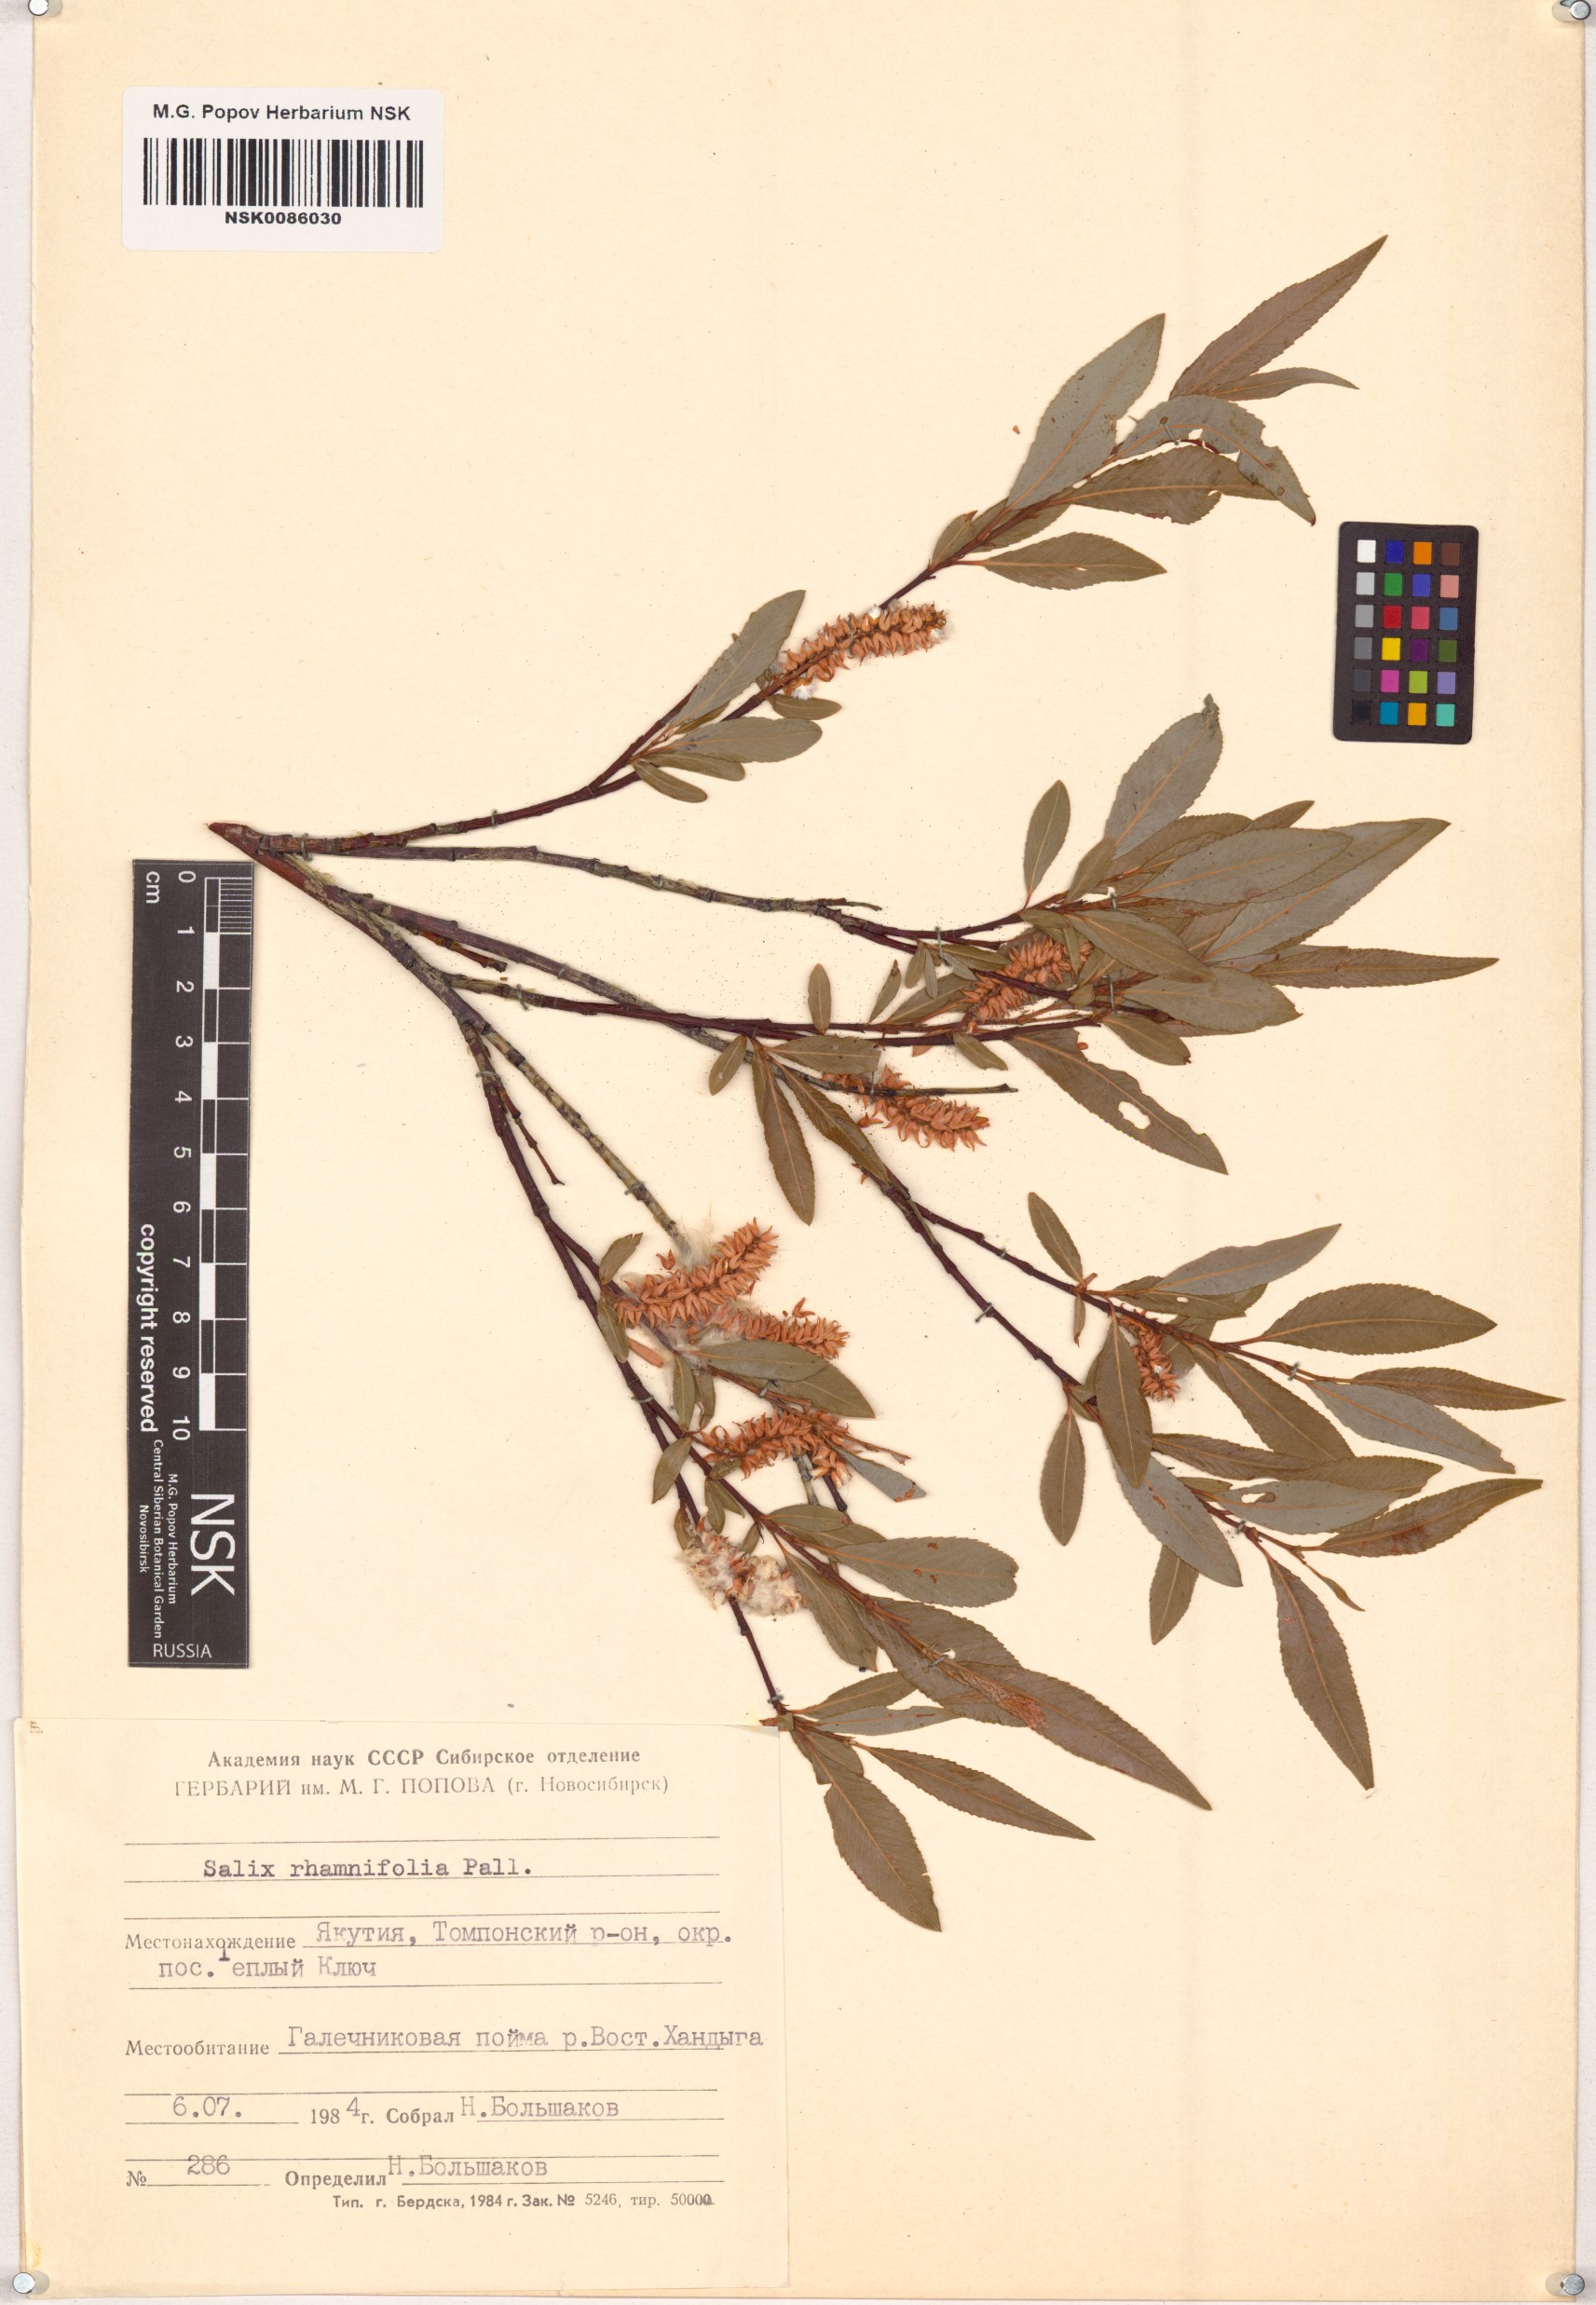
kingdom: Plantae
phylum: Tracheophyta
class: Magnoliopsida
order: Malpighiales
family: Salicaceae
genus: Salix
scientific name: Salix rhamnifolia
